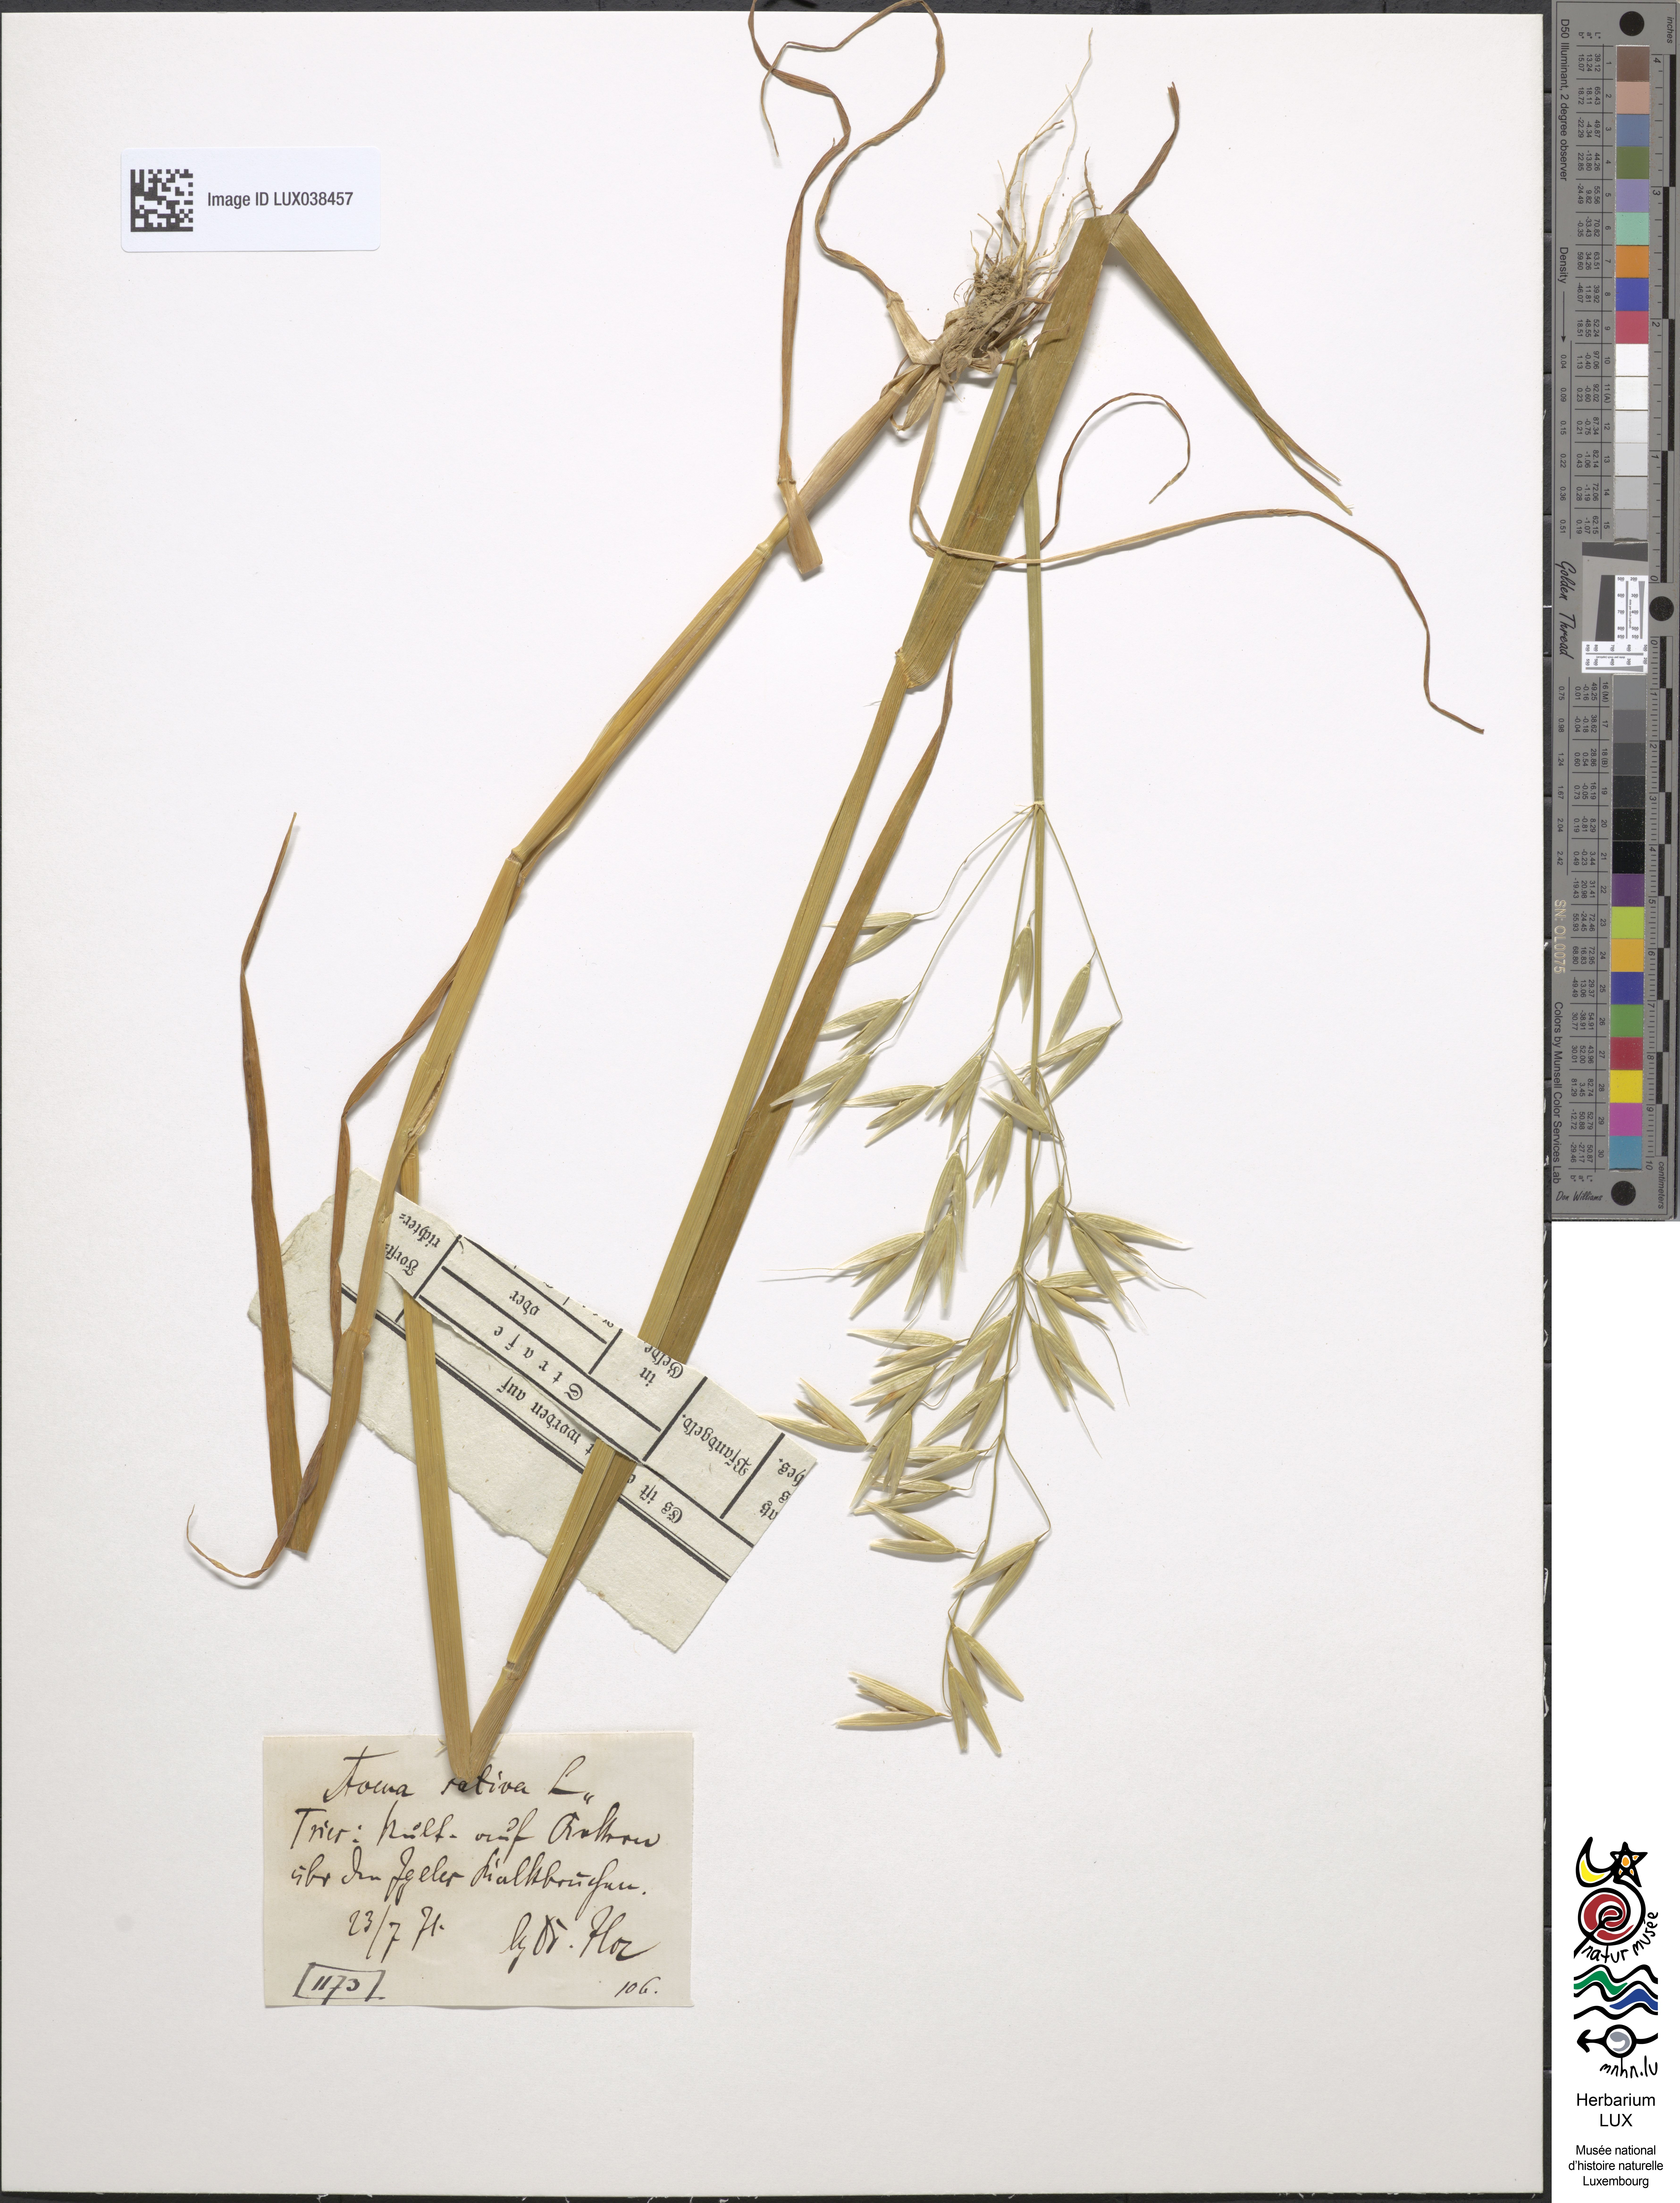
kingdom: Plantae
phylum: Tracheophyta
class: Liliopsida
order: Poales
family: Poaceae
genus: Avena
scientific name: Avena sativa
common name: Oat
